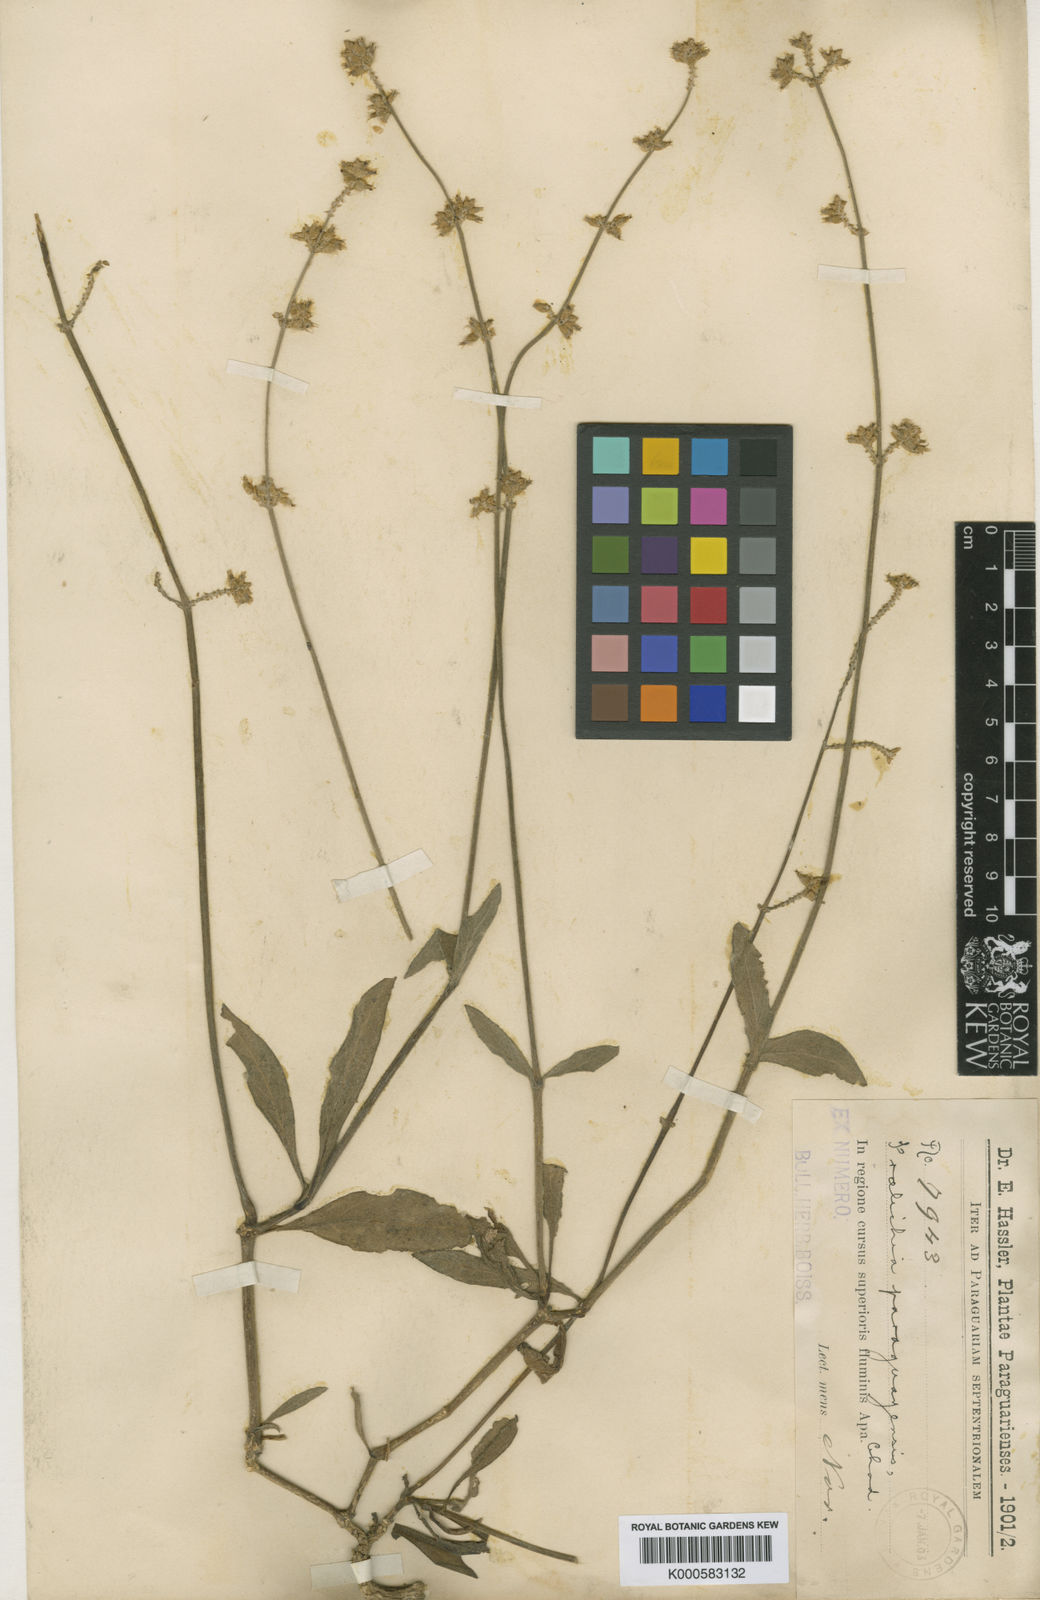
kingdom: Plantae
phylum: Tracheophyta
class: Magnoliopsida
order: Caryophyllales
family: Amaranthaceae
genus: Froelichia
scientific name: Froelichia paraguayensis
